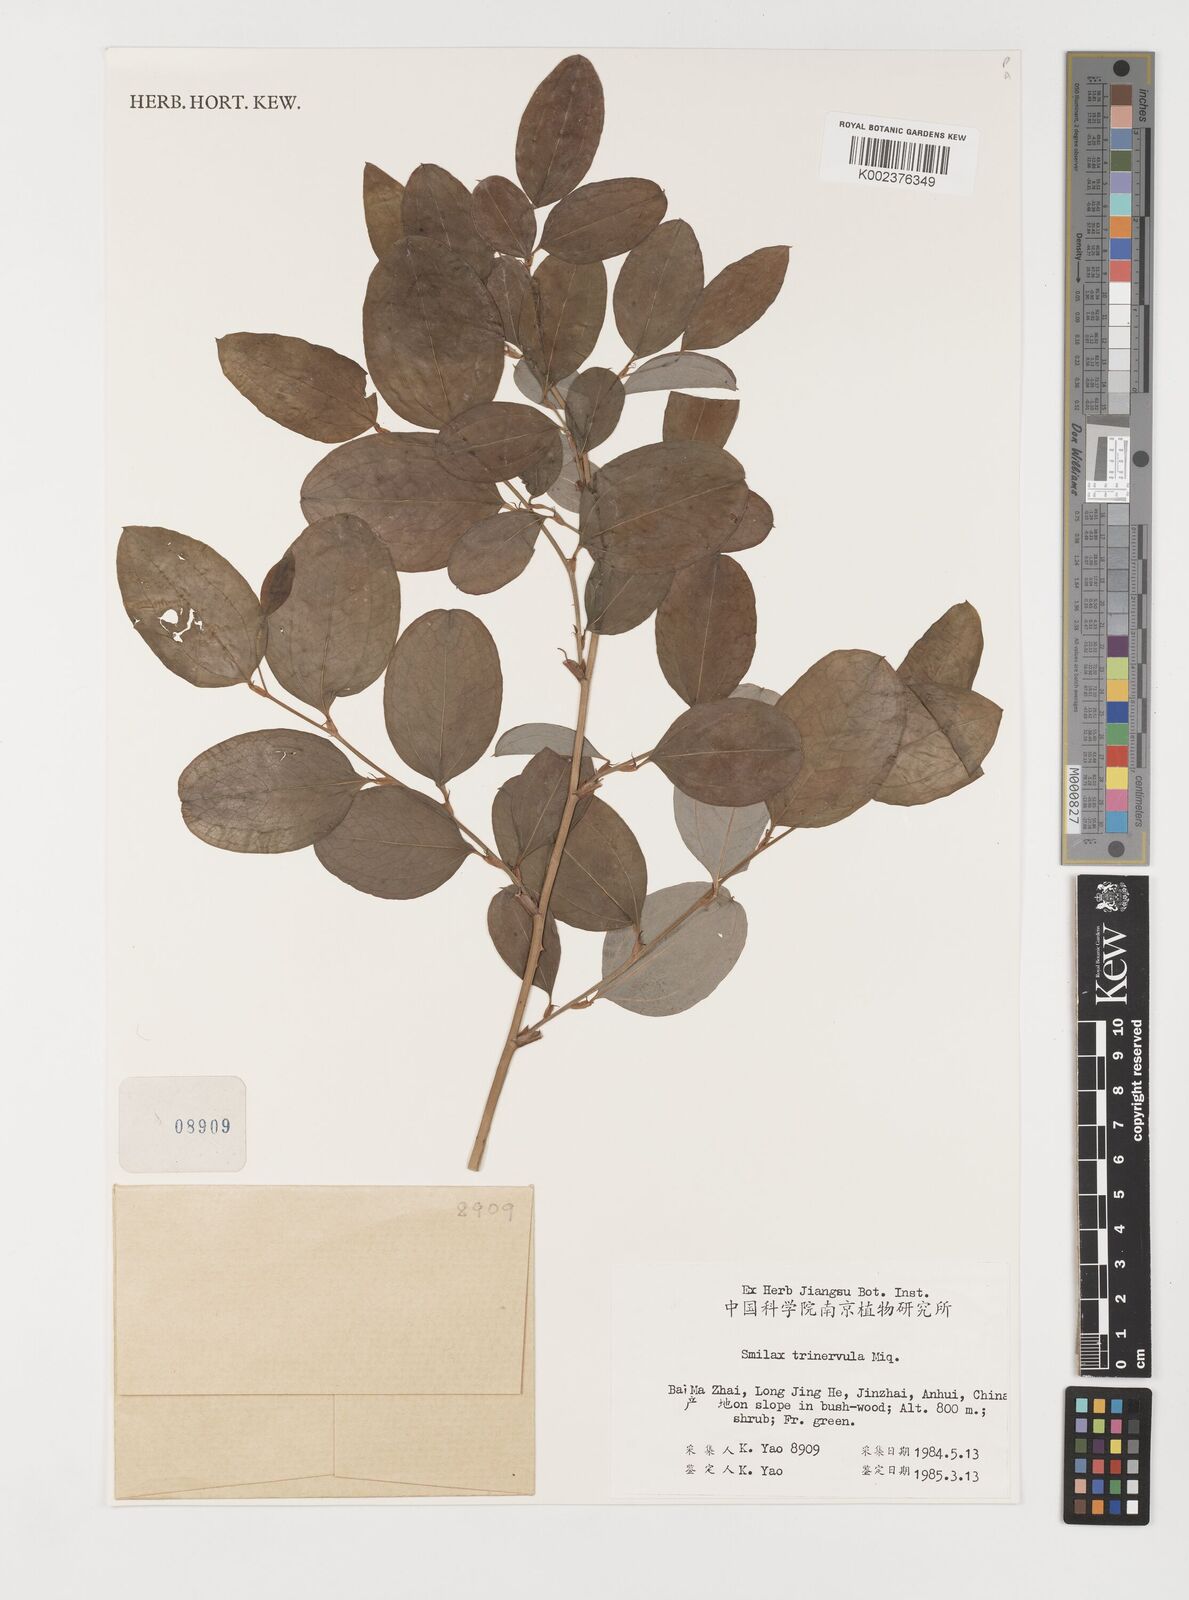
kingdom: Plantae
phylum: Tracheophyta
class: Liliopsida
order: Liliales
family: Smilacaceae
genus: Smilax
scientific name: Smilax trinervula
